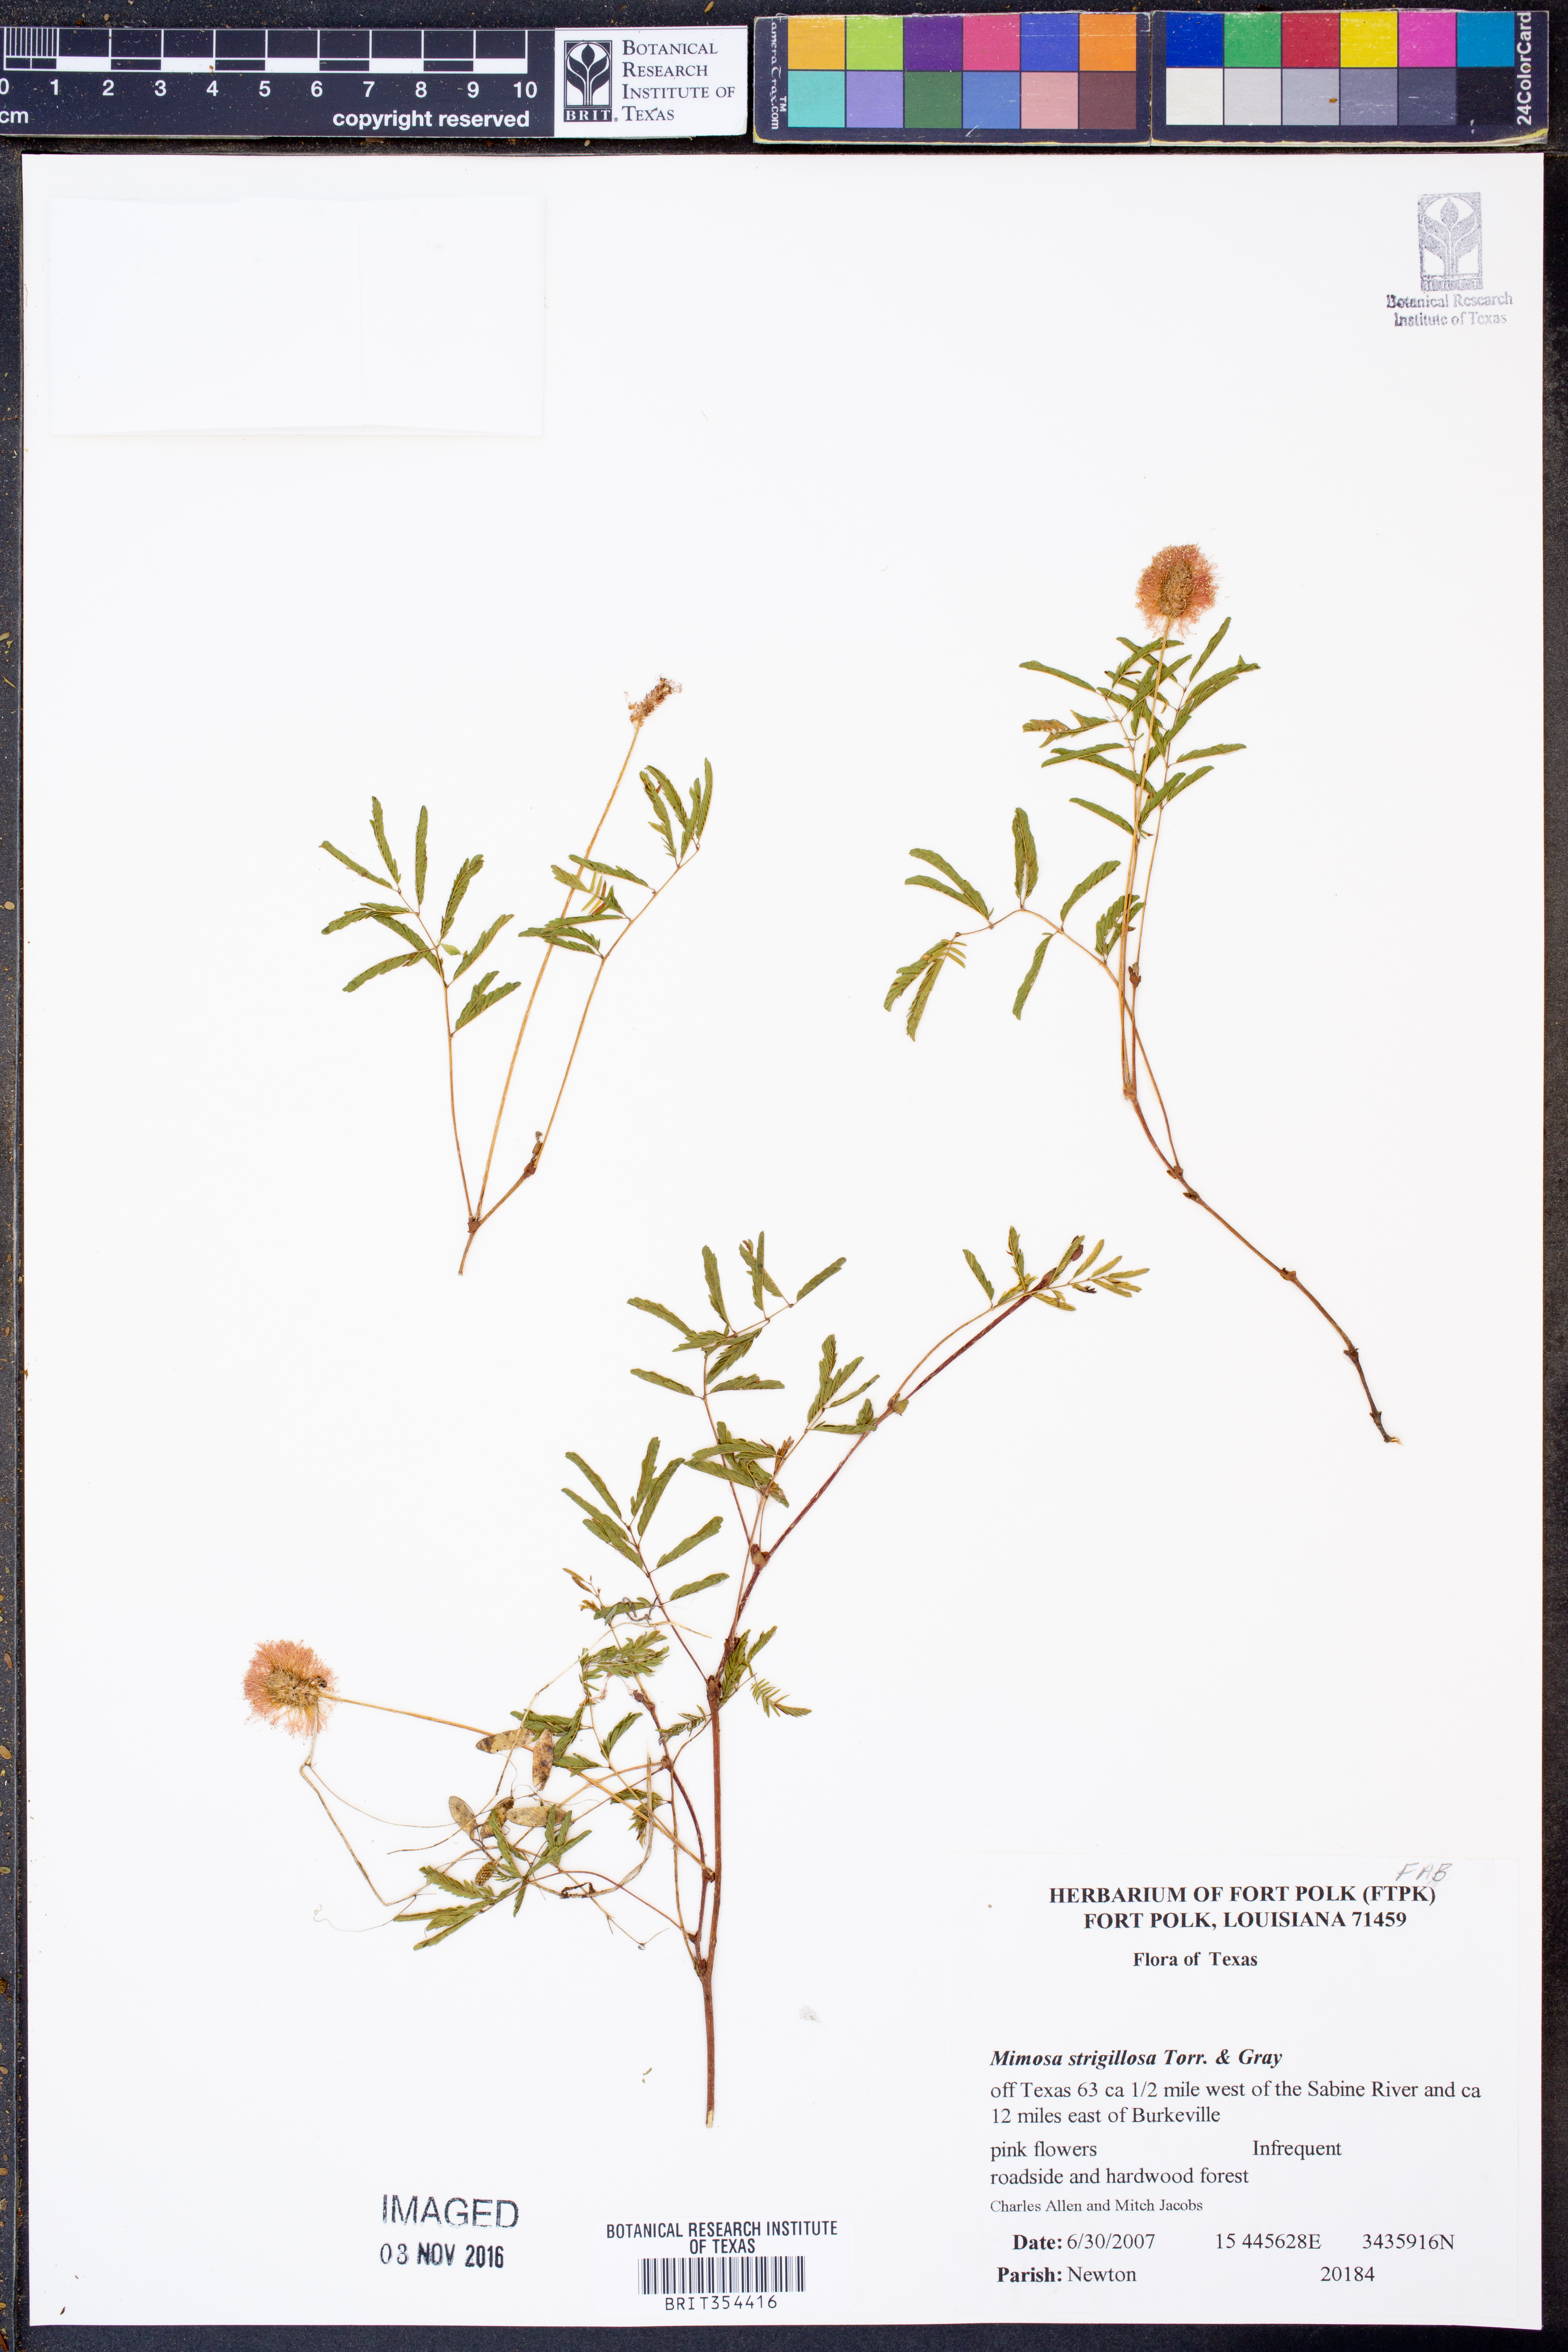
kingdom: Plantae
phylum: Tracheophyta
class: Magnoliopsida
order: Fabales
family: Fabaceae
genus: Mimosa
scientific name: Mimosa strigillosa
